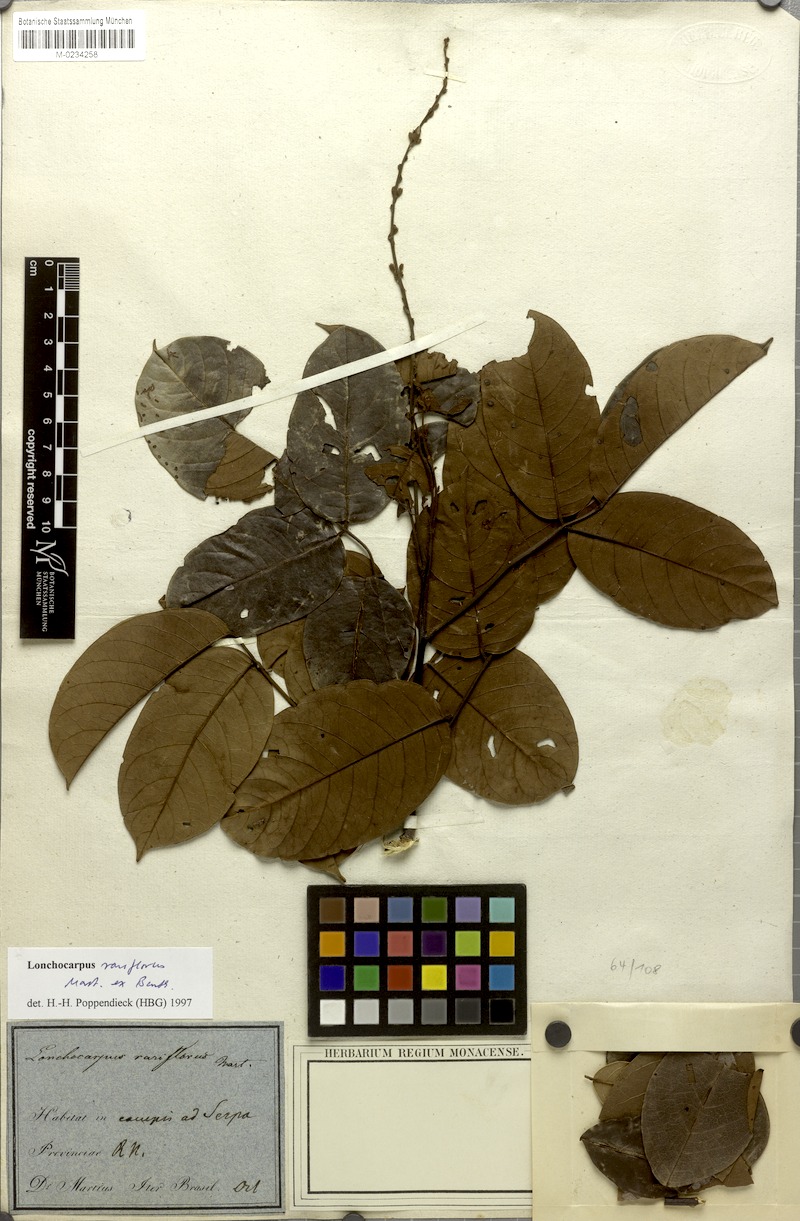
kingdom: Plantae
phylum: Tracheophyta
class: Magnoliopsida
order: Fabales
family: Fabaceae
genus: Deguelia
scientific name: Deguelia rariflora
